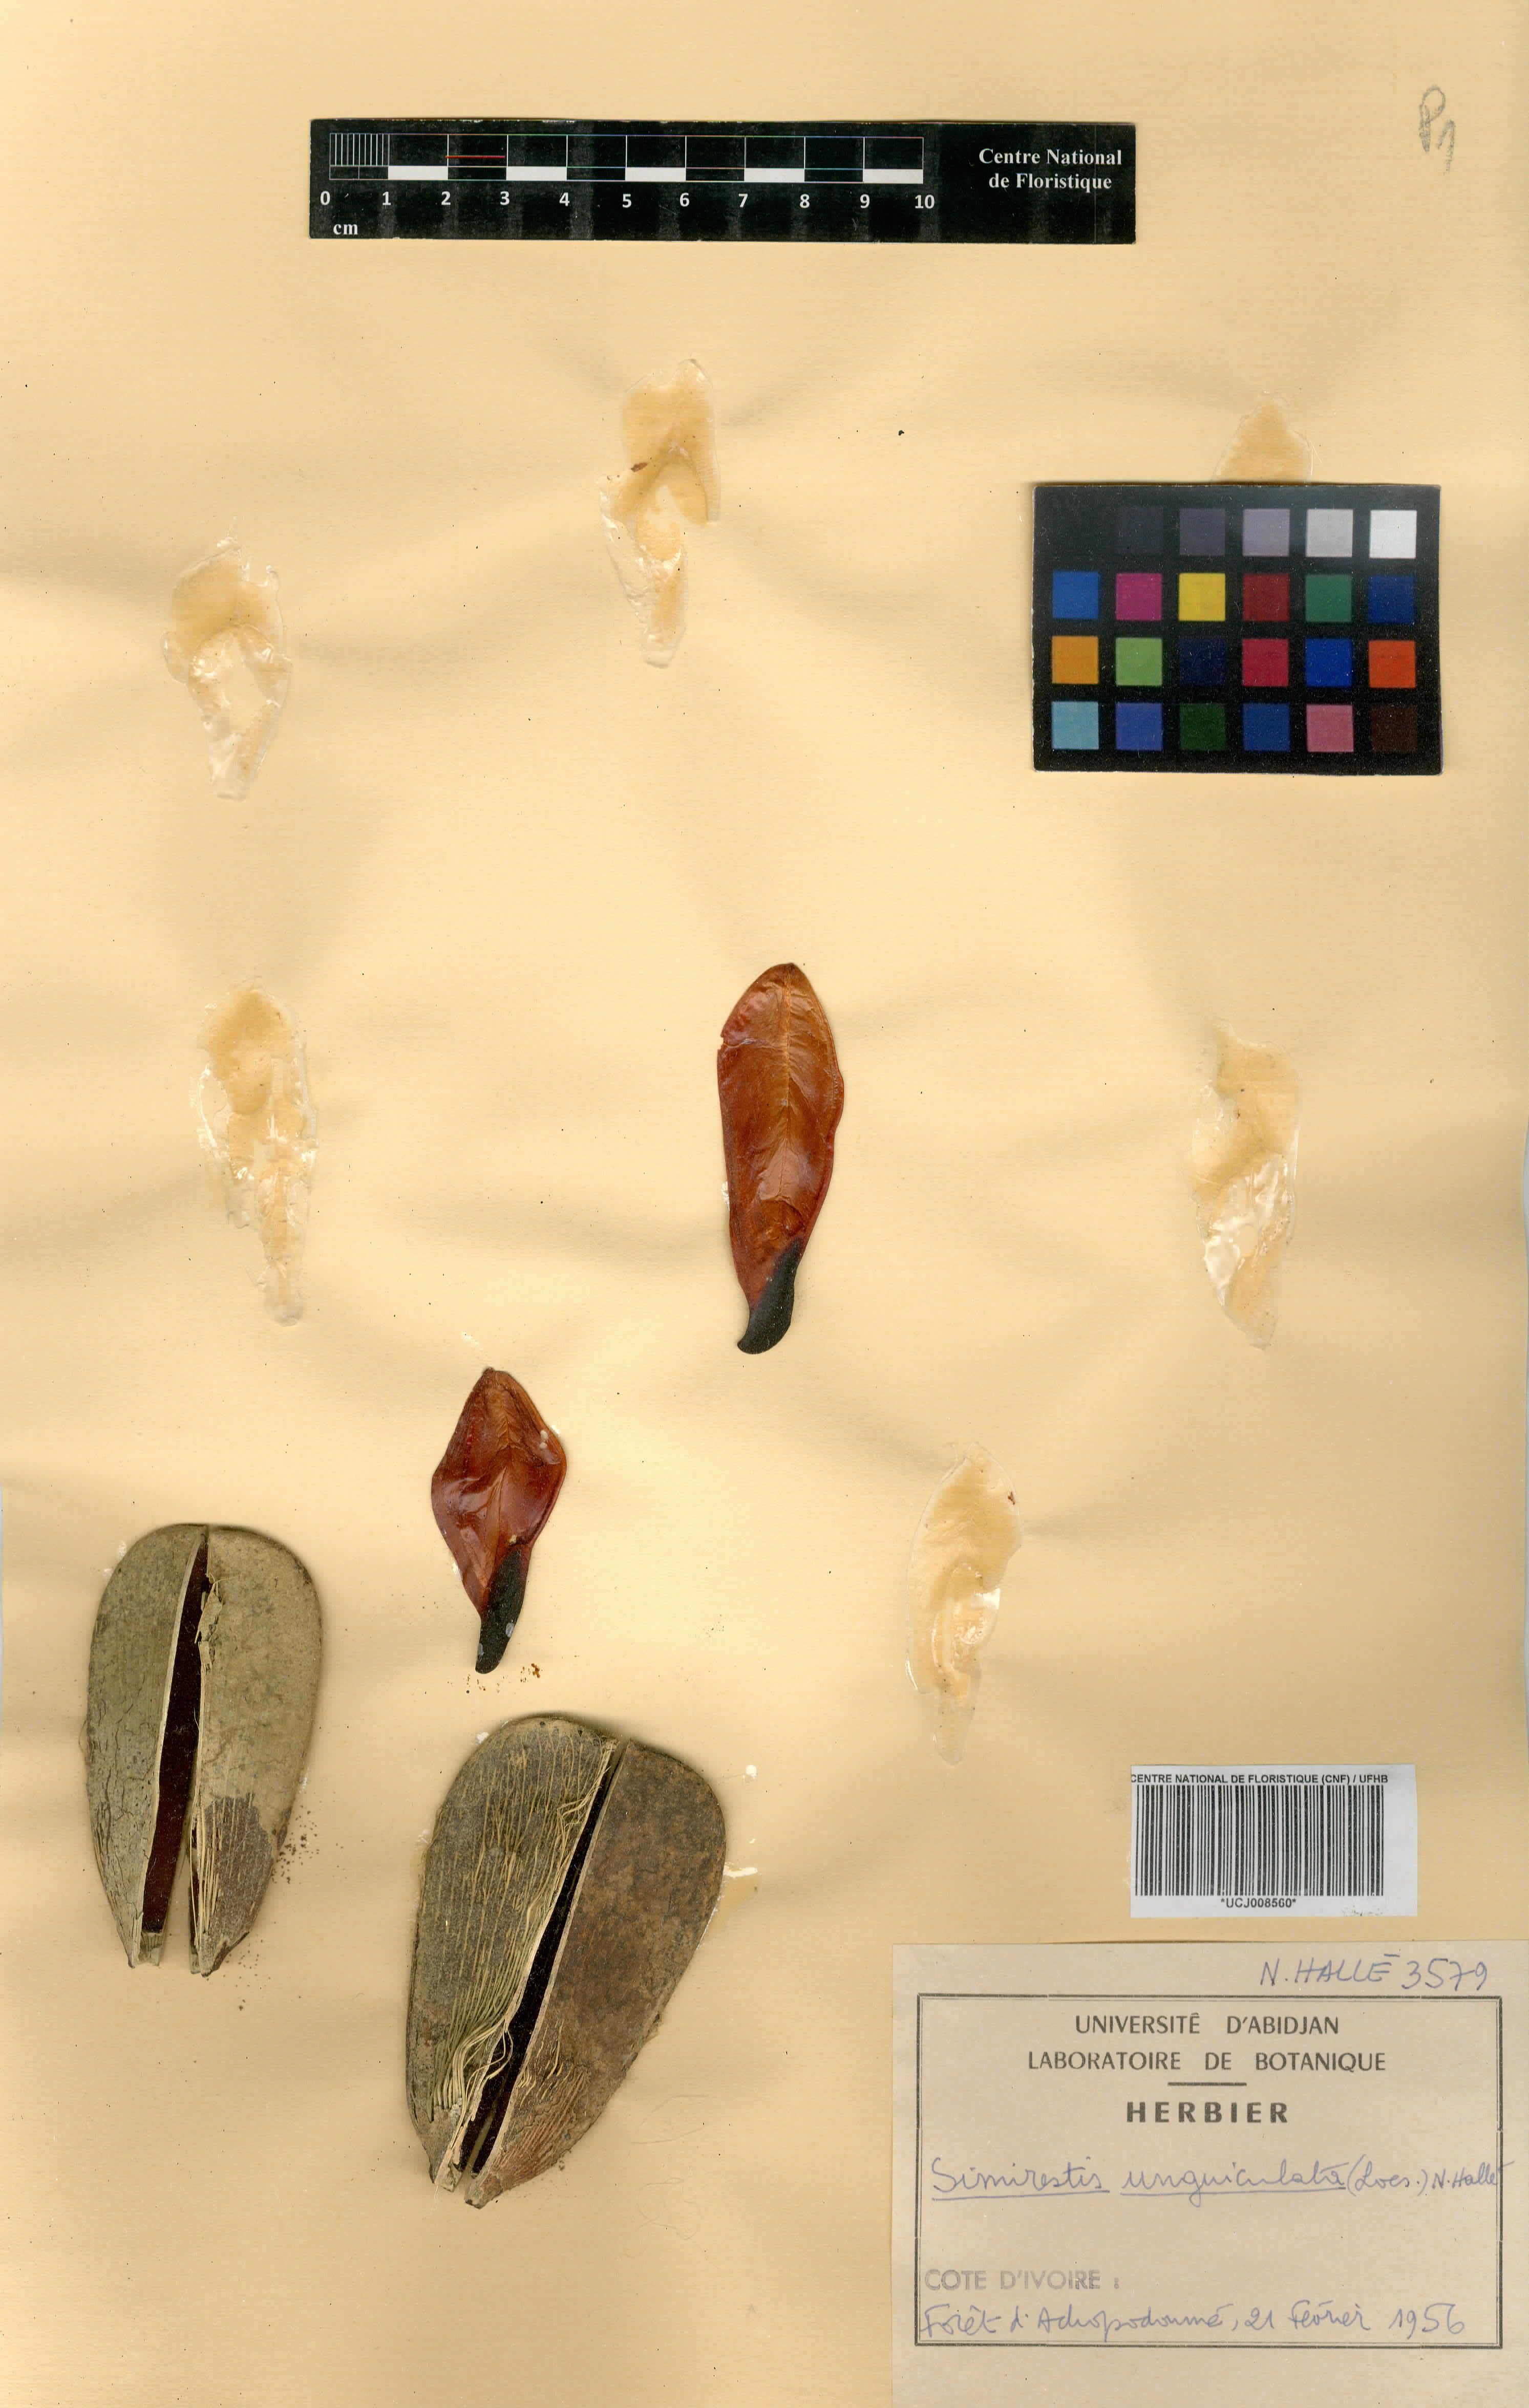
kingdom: Plantae
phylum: Tracheophyta
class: Magnoliopsida
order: Celastrales
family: Celastraceae
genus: Pristimera
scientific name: Pristimera unguiculata
